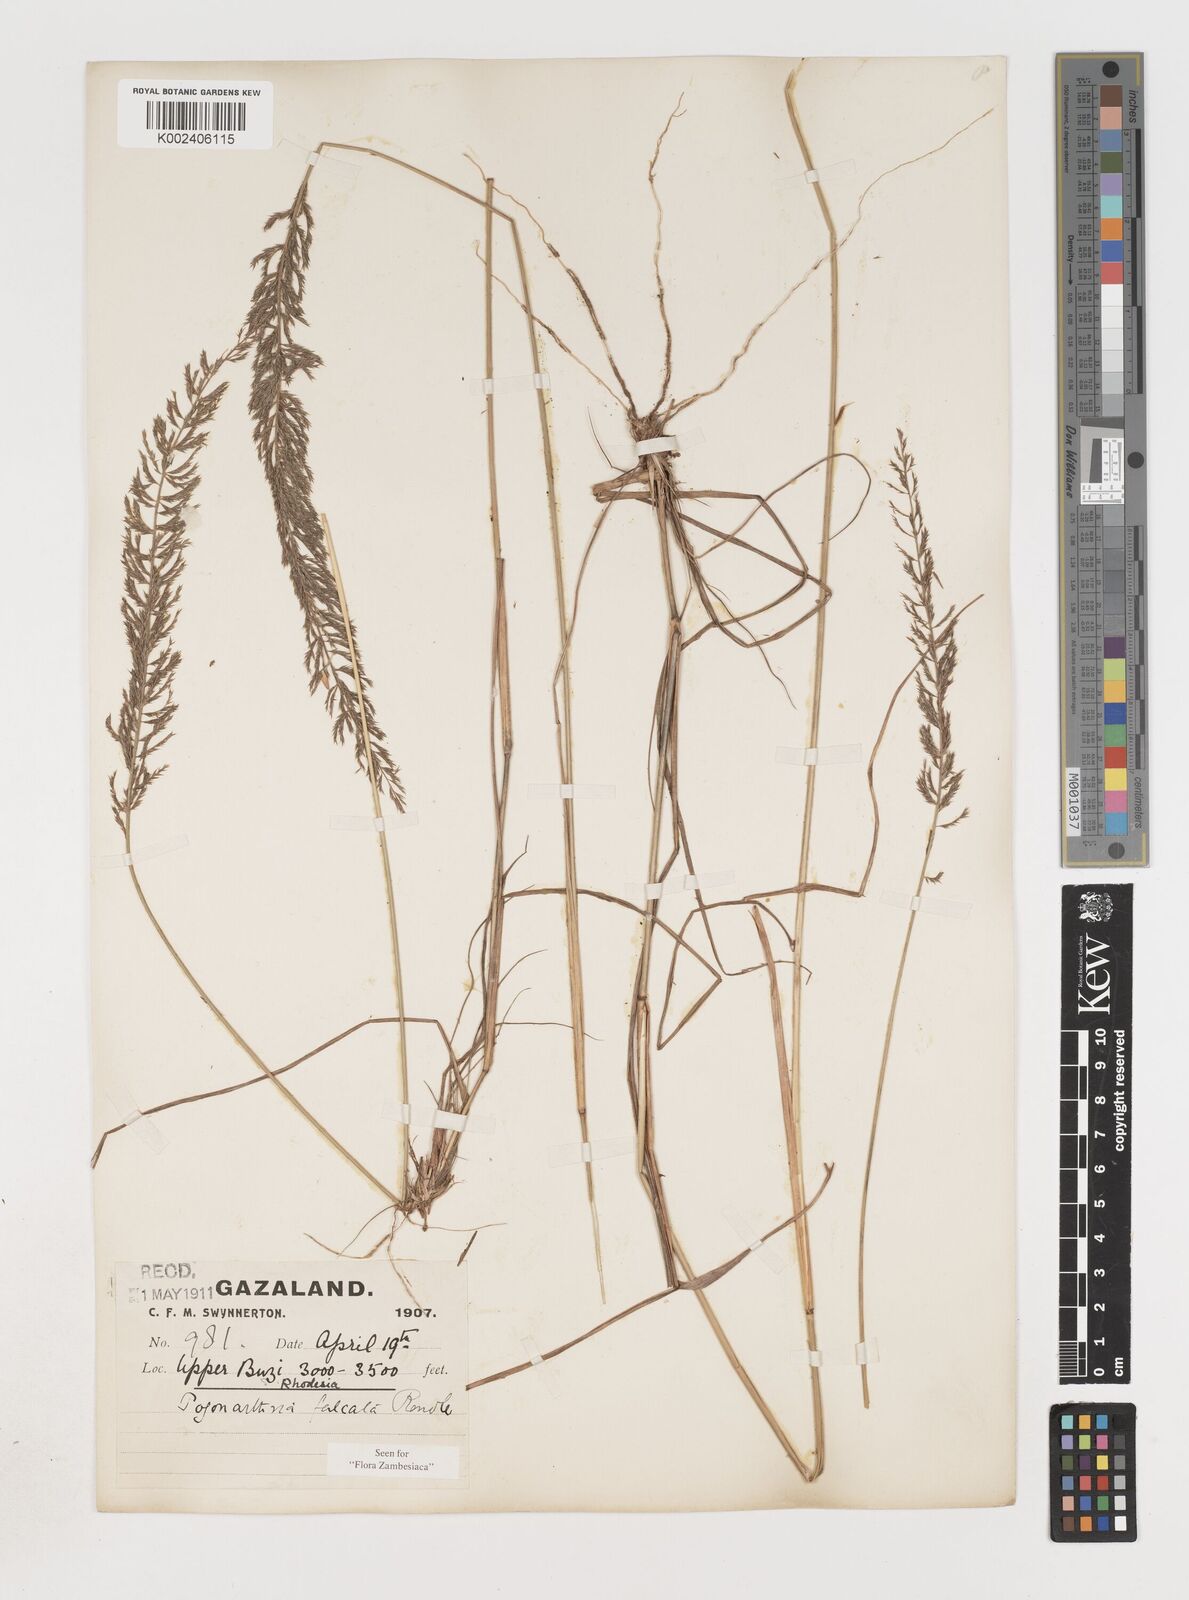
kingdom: Plantae
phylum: Tracheophyta
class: Liliopsida
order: Poales
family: Poaceae
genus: Pogonarthria
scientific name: Pogonarthria squarrosa
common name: Grass
